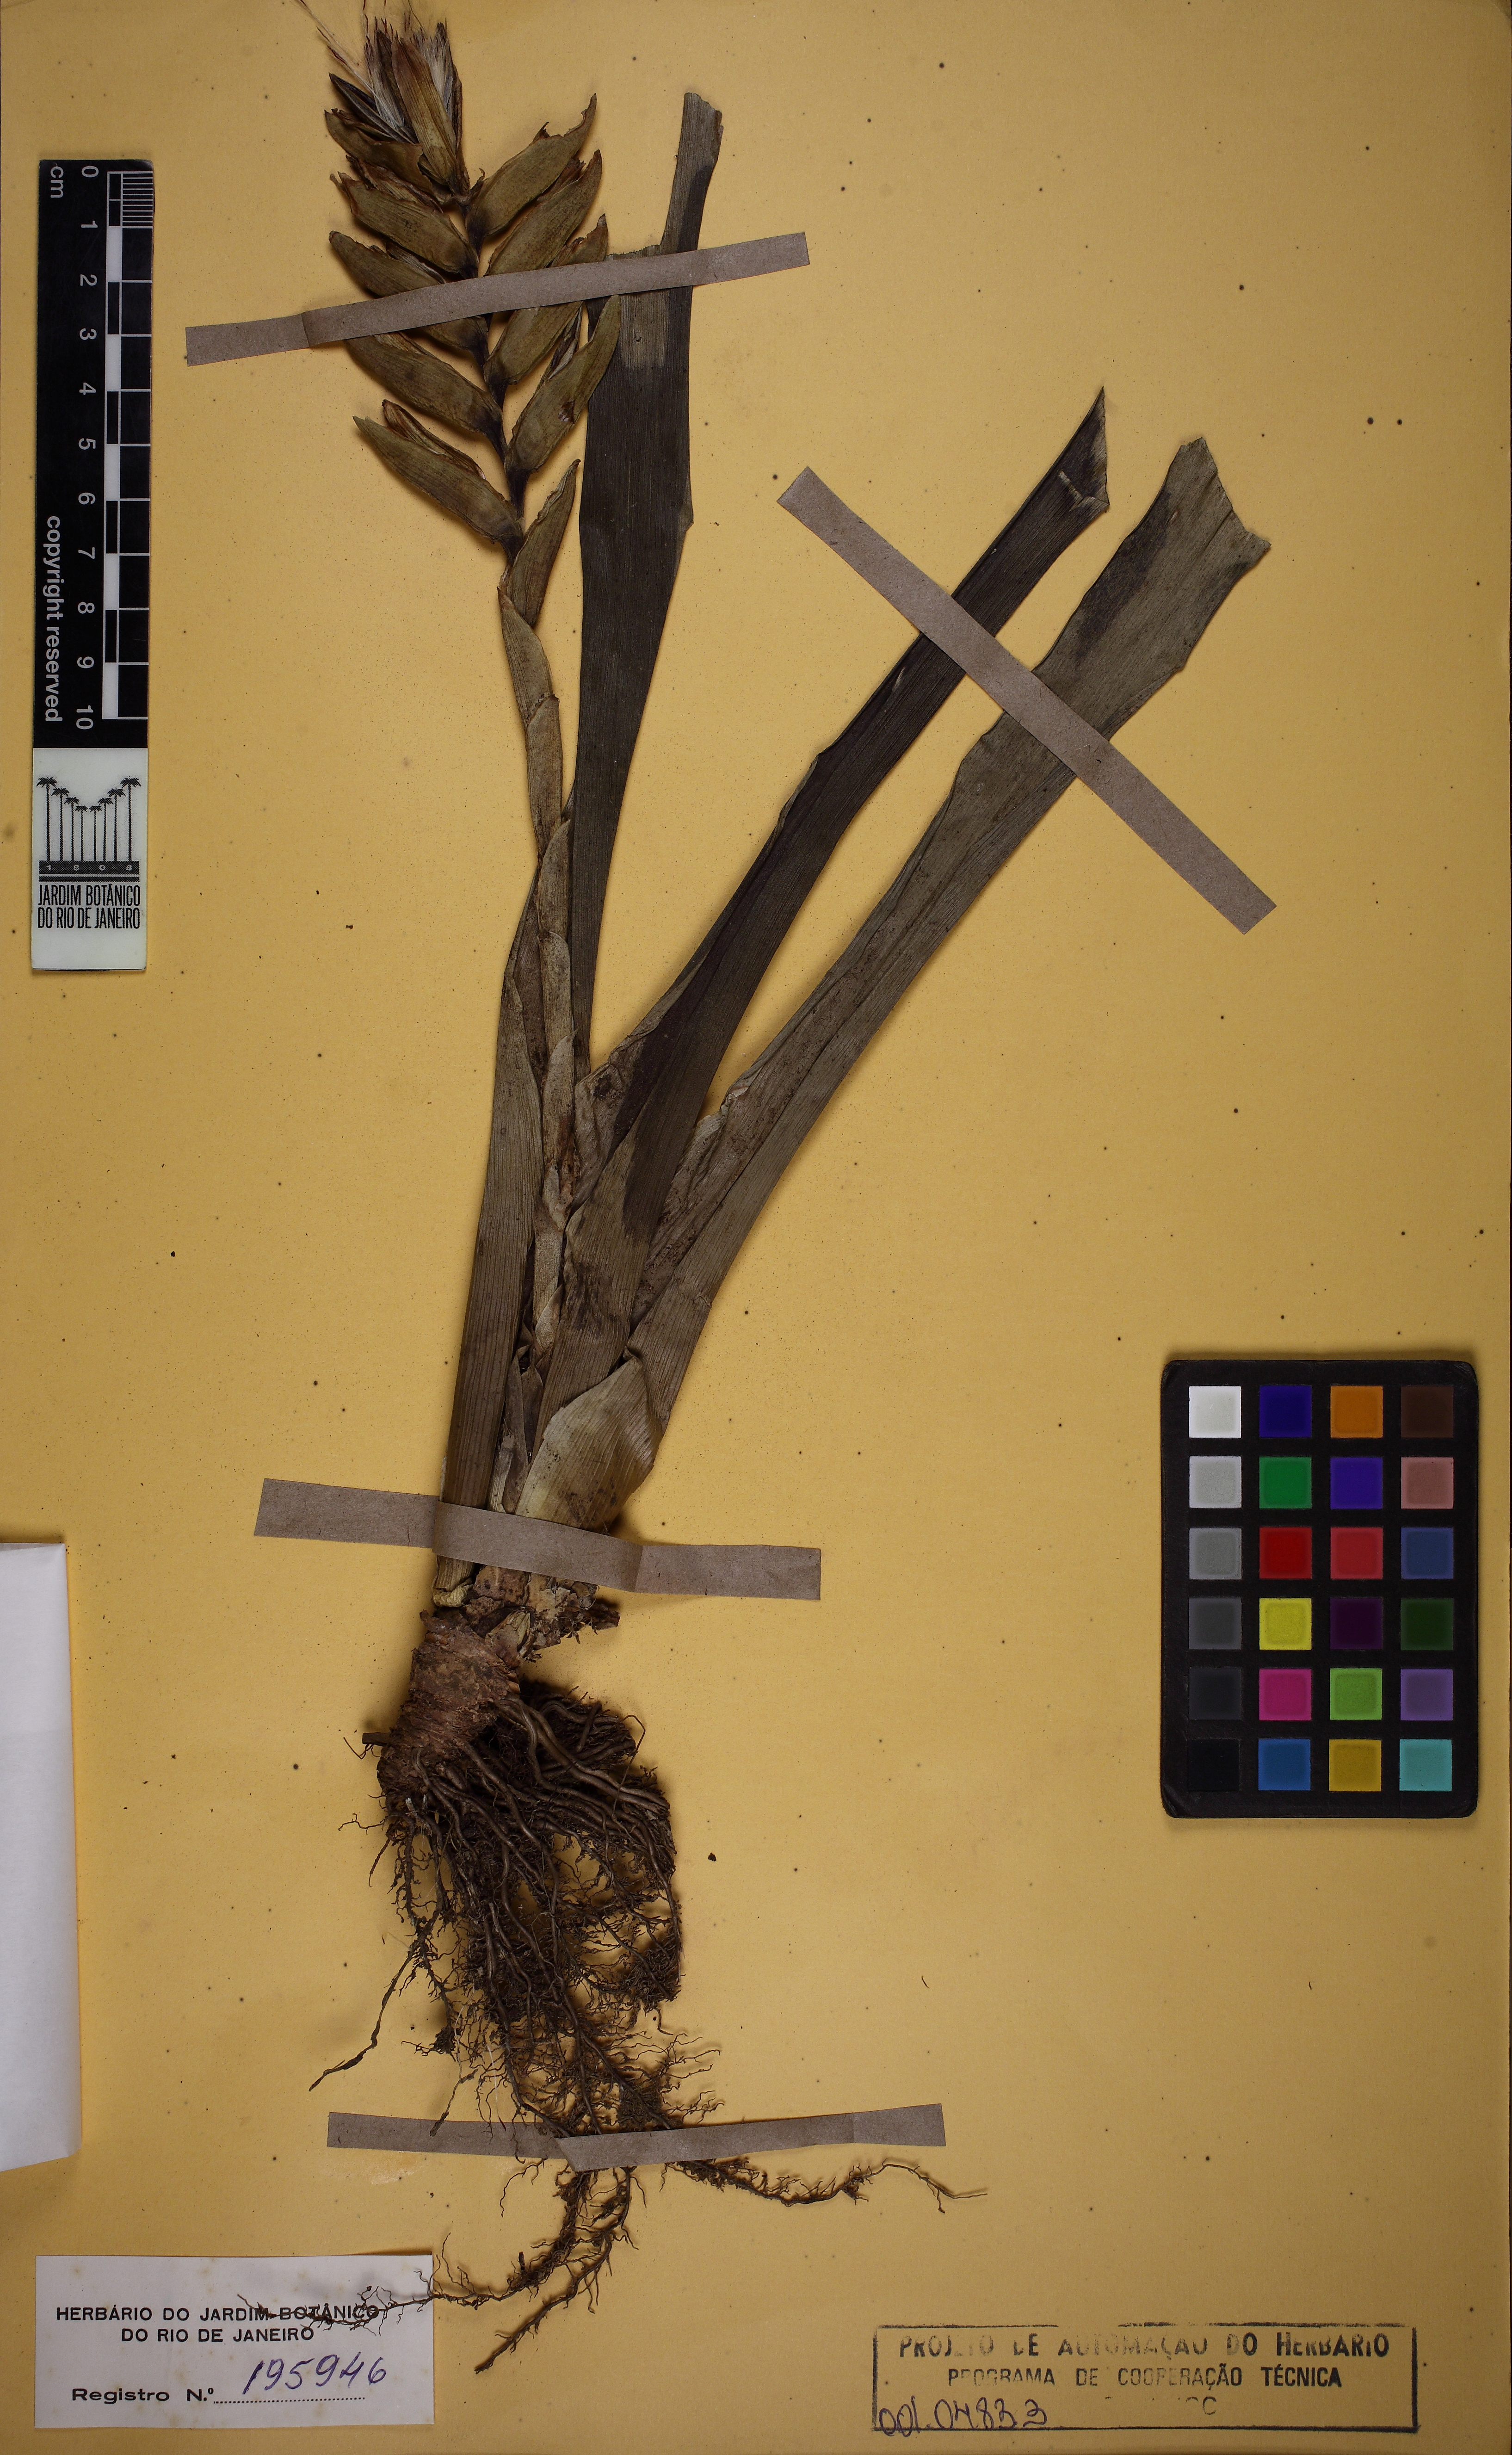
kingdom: Plantae
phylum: Tracheophyta
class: Liliopsida
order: Poales
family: Bromeliaceae
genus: Vriesea
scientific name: Vriesea paraibica
